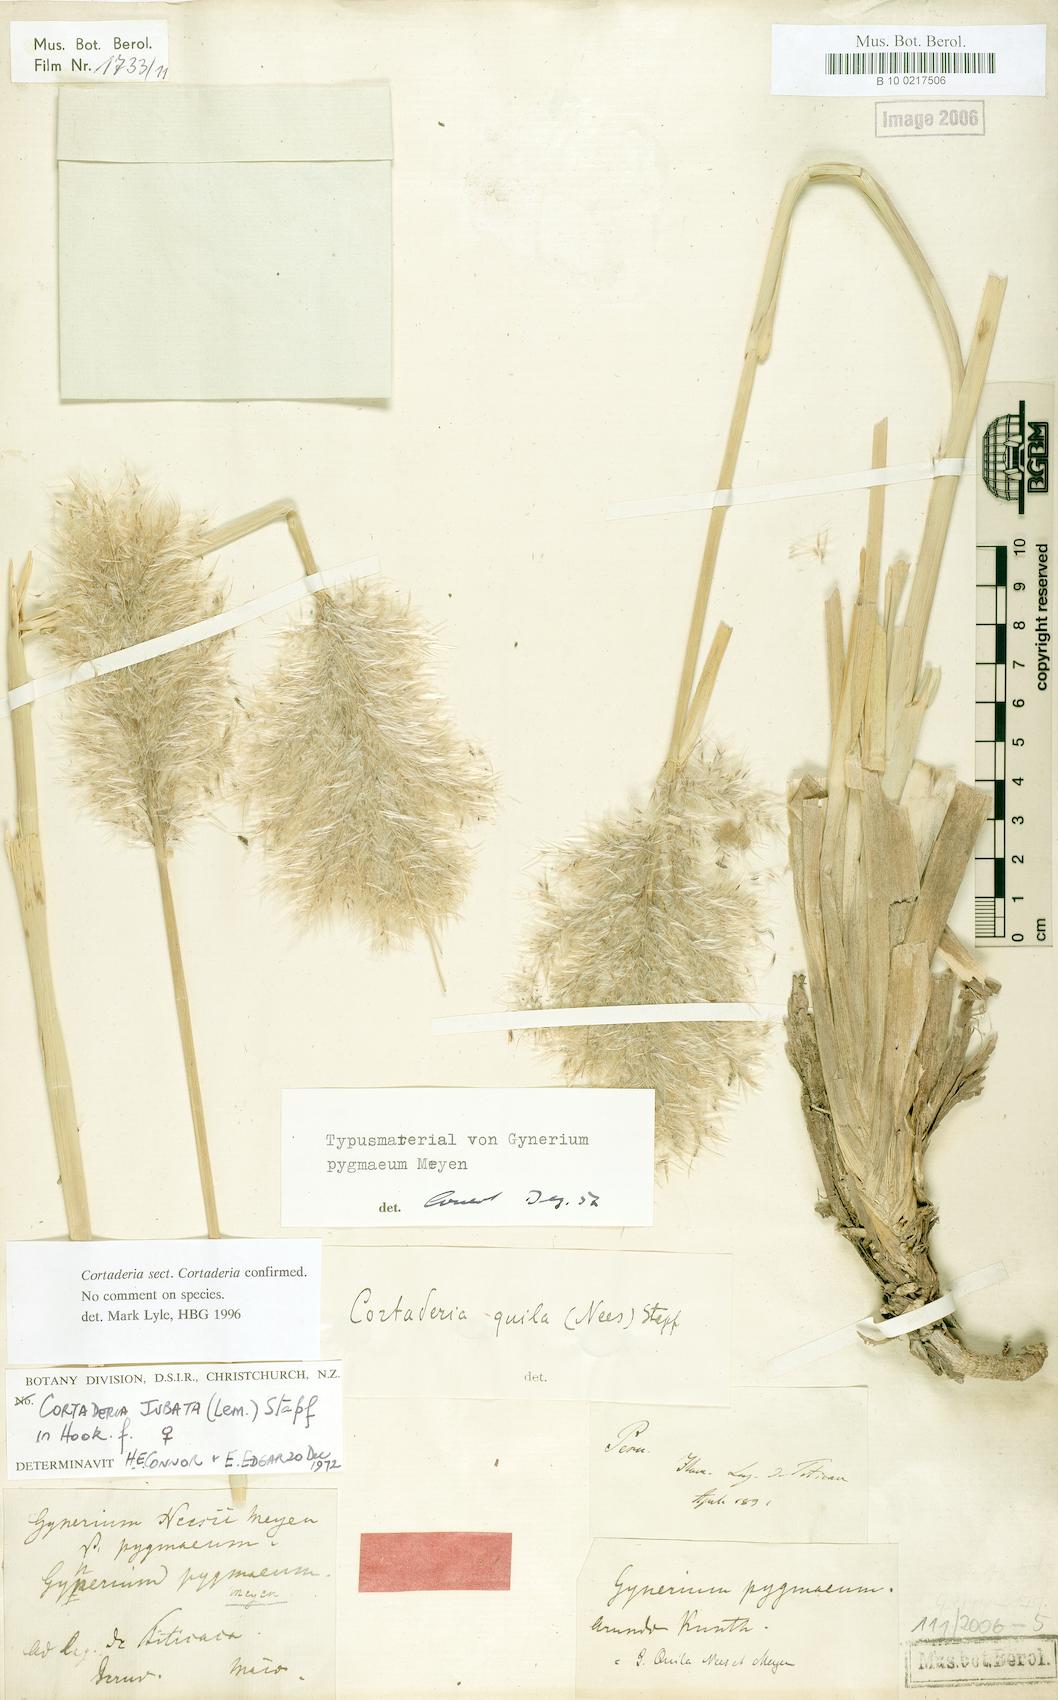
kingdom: Plantae
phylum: Tracheophyta
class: Liliopsida
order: Poales
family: Poaceae
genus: Cortaderia
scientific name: Cortaderia jubata
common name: Purple pampas grass
